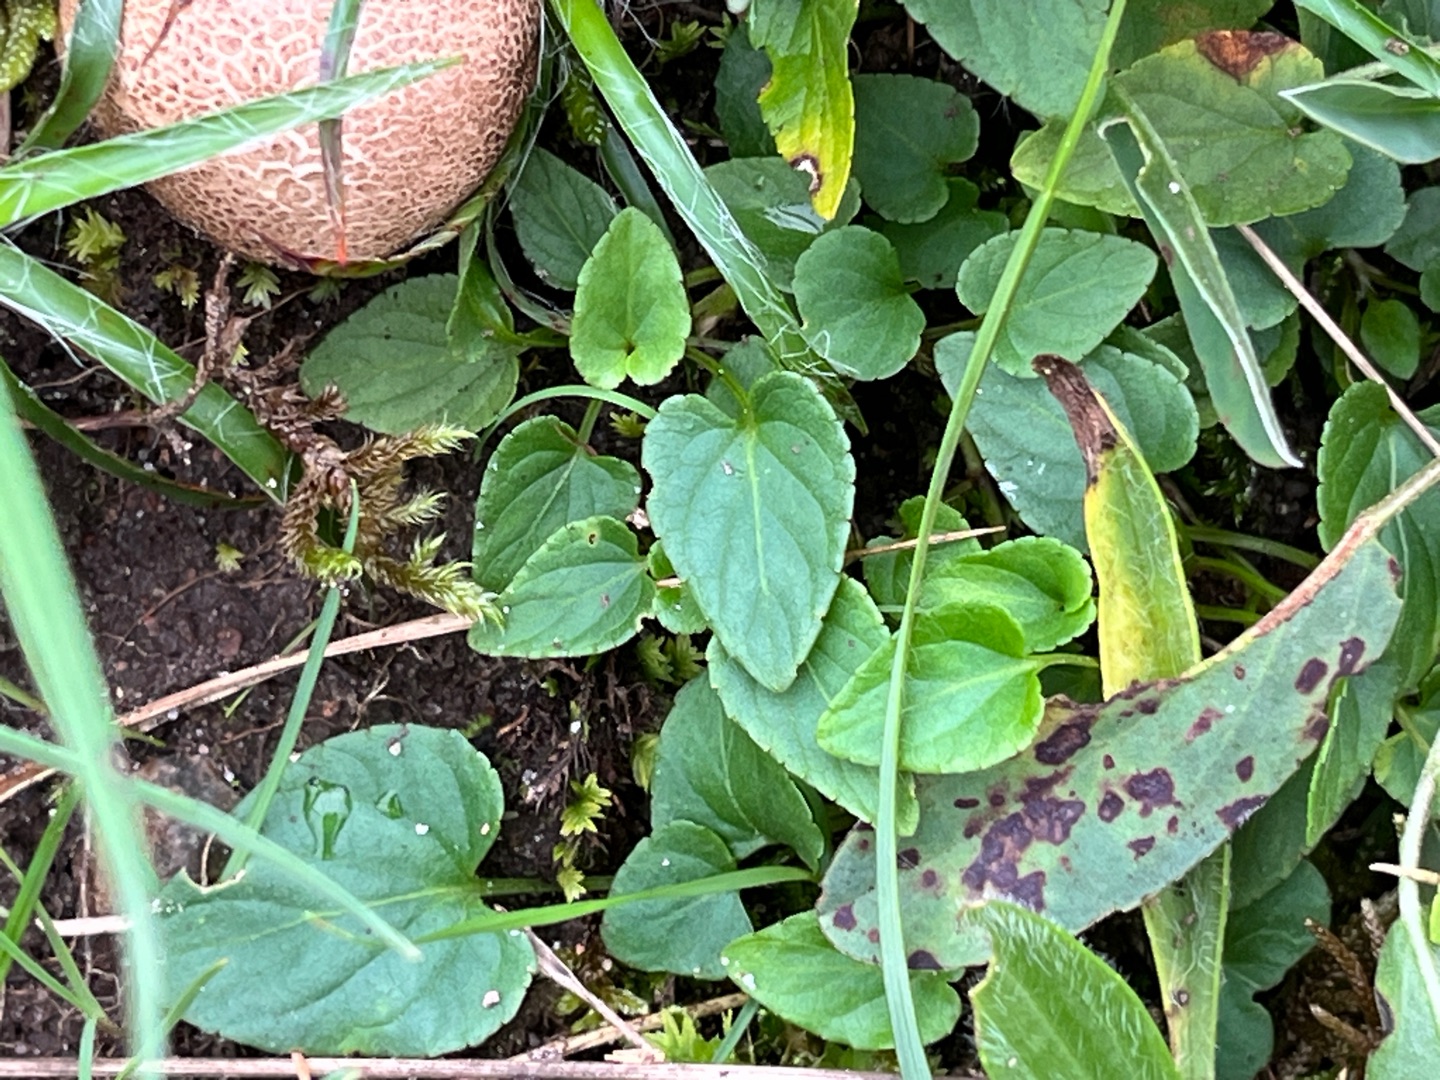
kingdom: Plantae
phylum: Tracheophyta
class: Magnoliopsida
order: Malpighiales
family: Violaceae
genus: Viola
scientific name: Viola canina
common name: Hunde-viol
